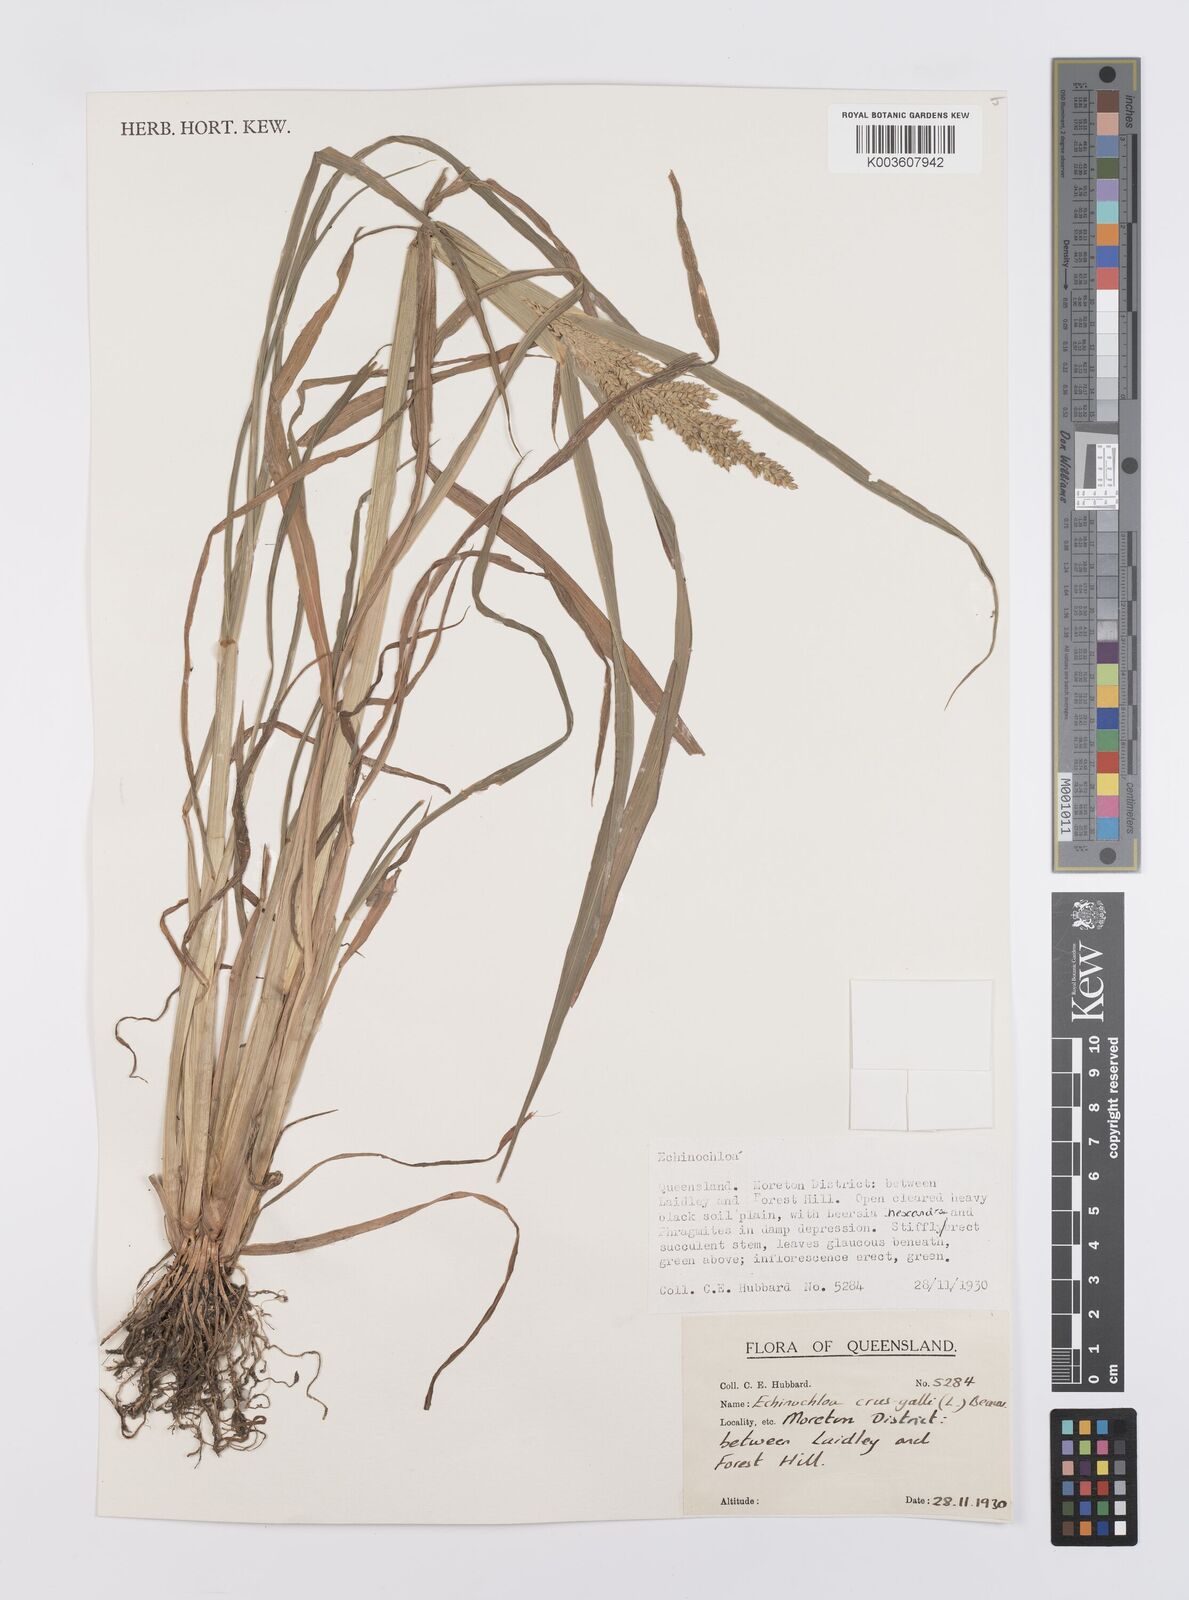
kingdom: Plantae
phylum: Tracheophyta
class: Liliopsida
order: Poales
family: Poaceae
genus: Echinochloa
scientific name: Echinochloa crus-galli
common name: Cockspur
